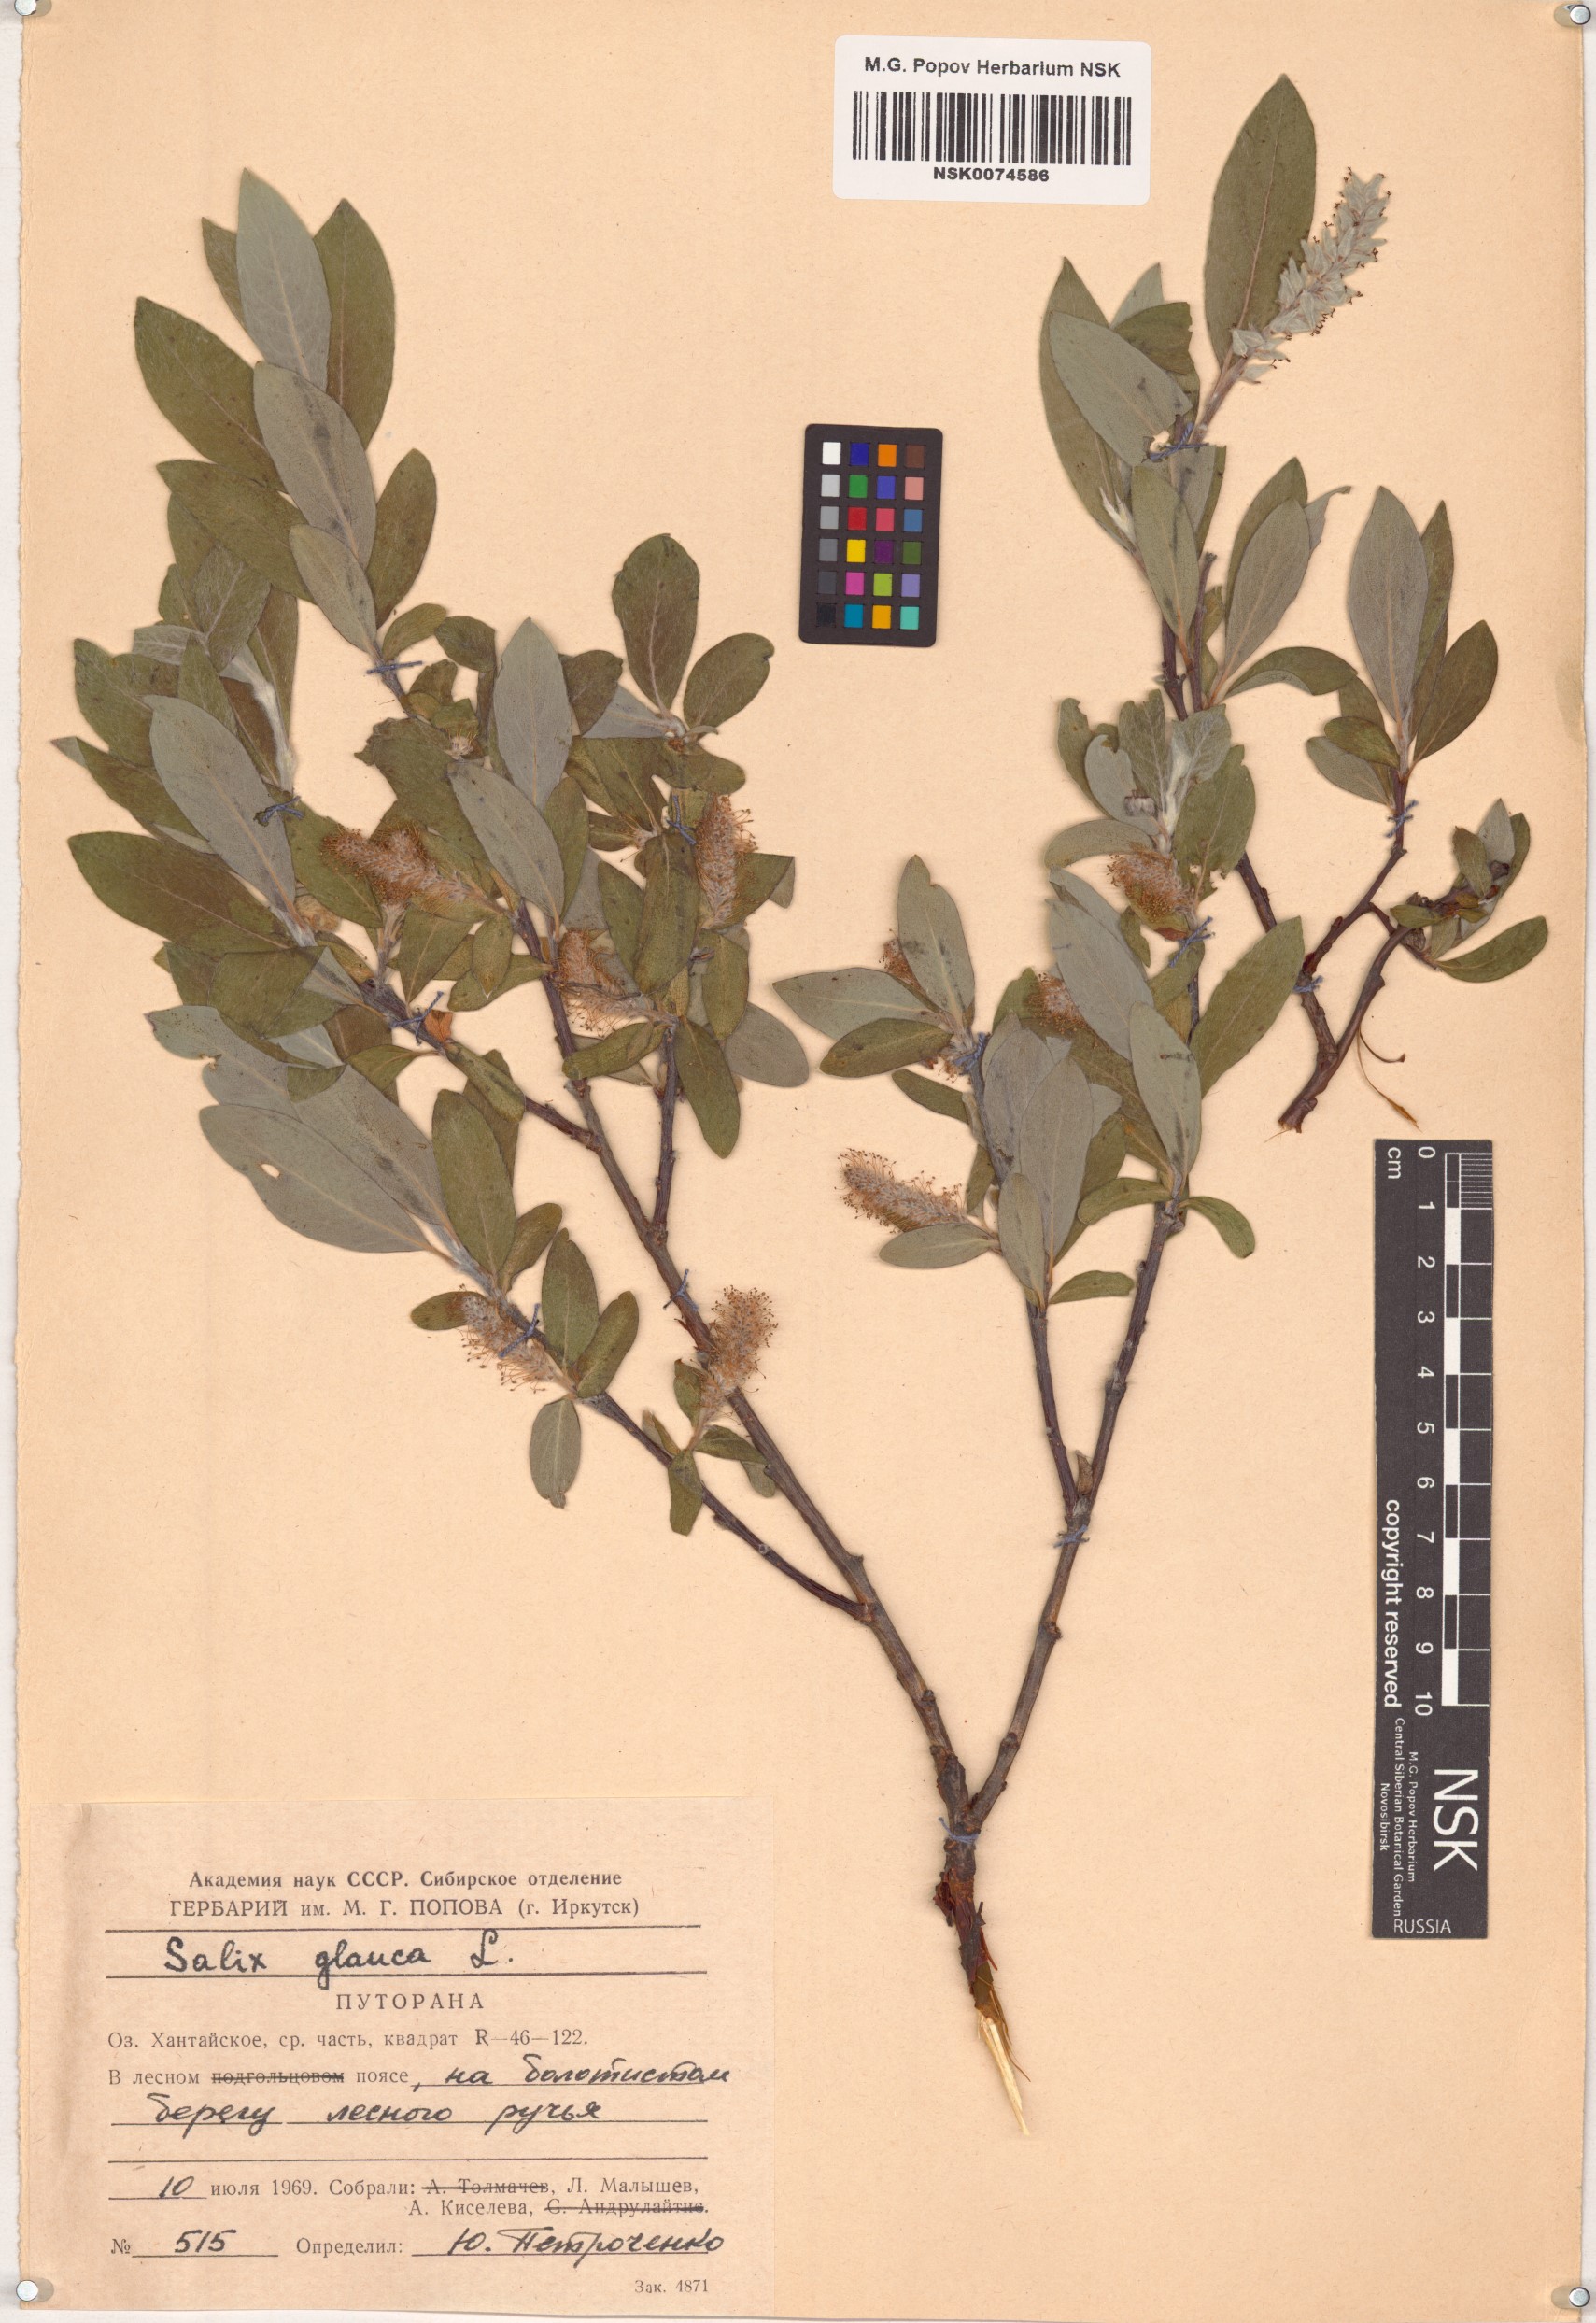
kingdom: Plantae
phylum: Tracheophyta
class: Magnoliopsida
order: Malpighiales
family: Salicaceae
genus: Salix
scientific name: Salix glauca
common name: Glaucous willow
